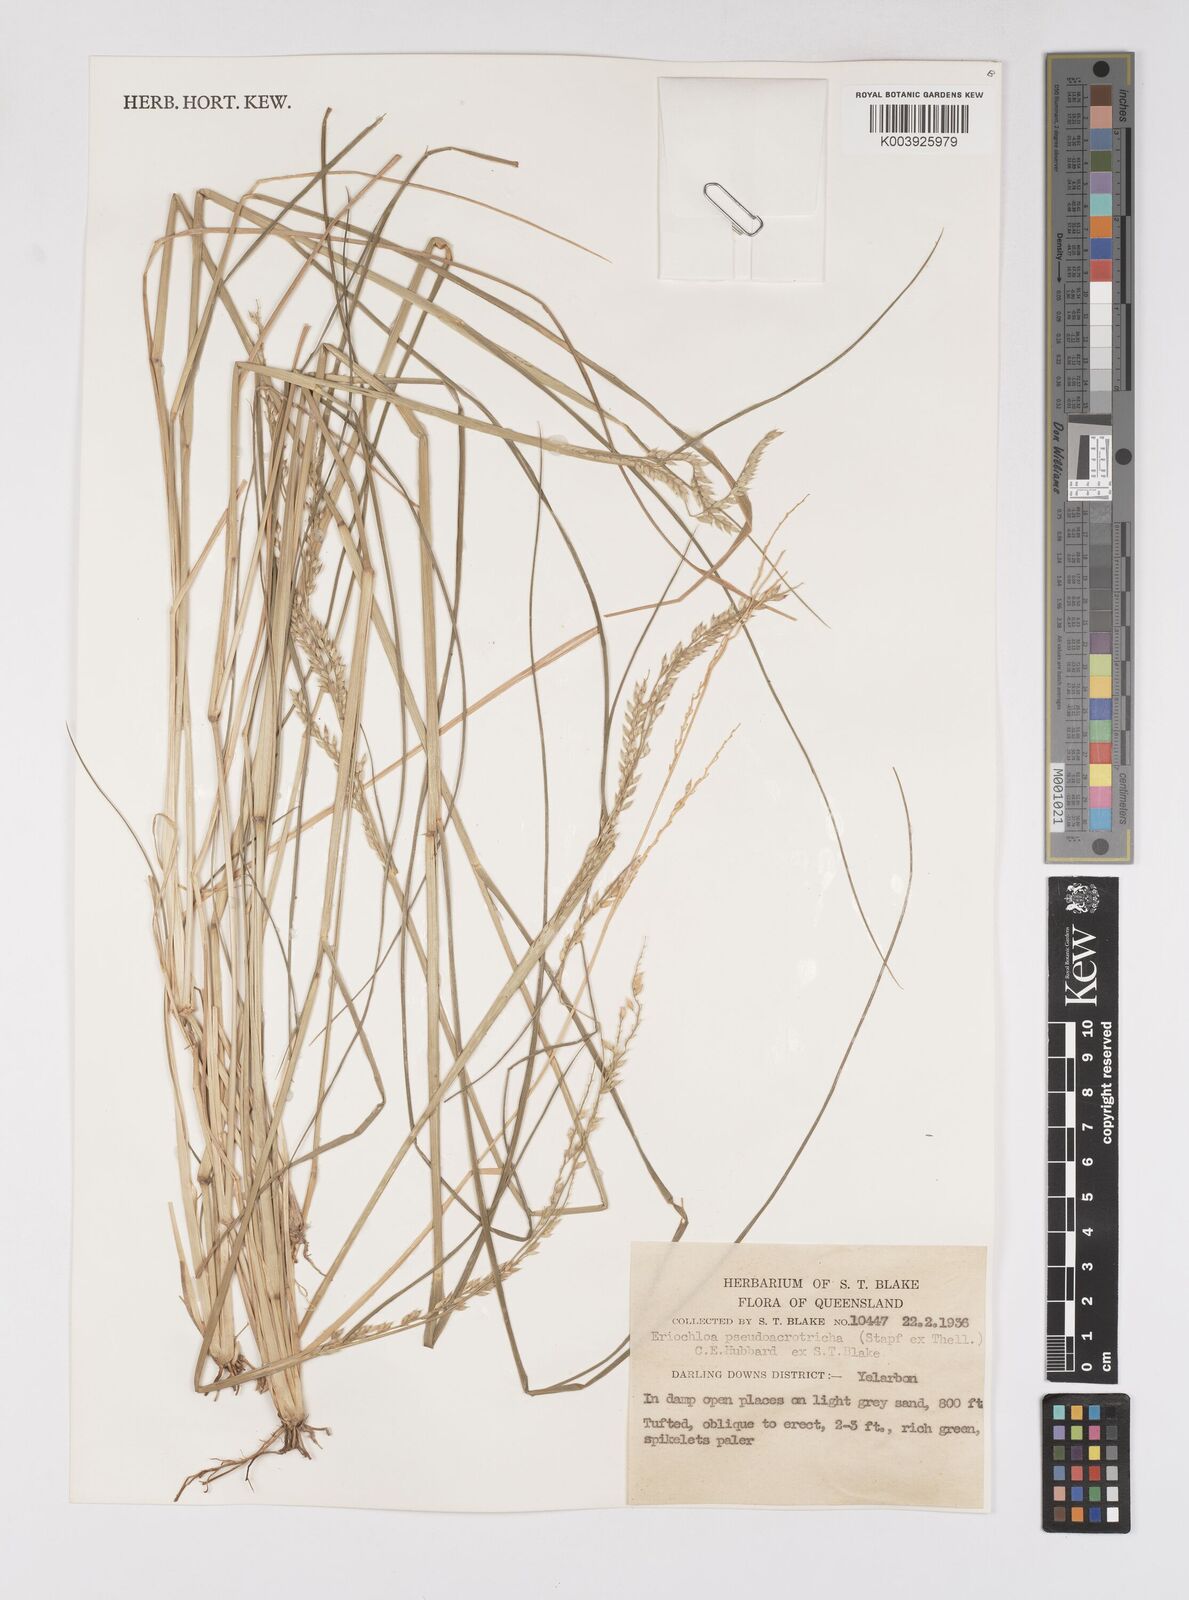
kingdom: Plantae
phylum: Tracheophyta
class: Liliopsida
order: Poales
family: Poaceae
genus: Eriochloa
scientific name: Eriochloa pseudoacrotricha
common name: Perennial cup-grass
